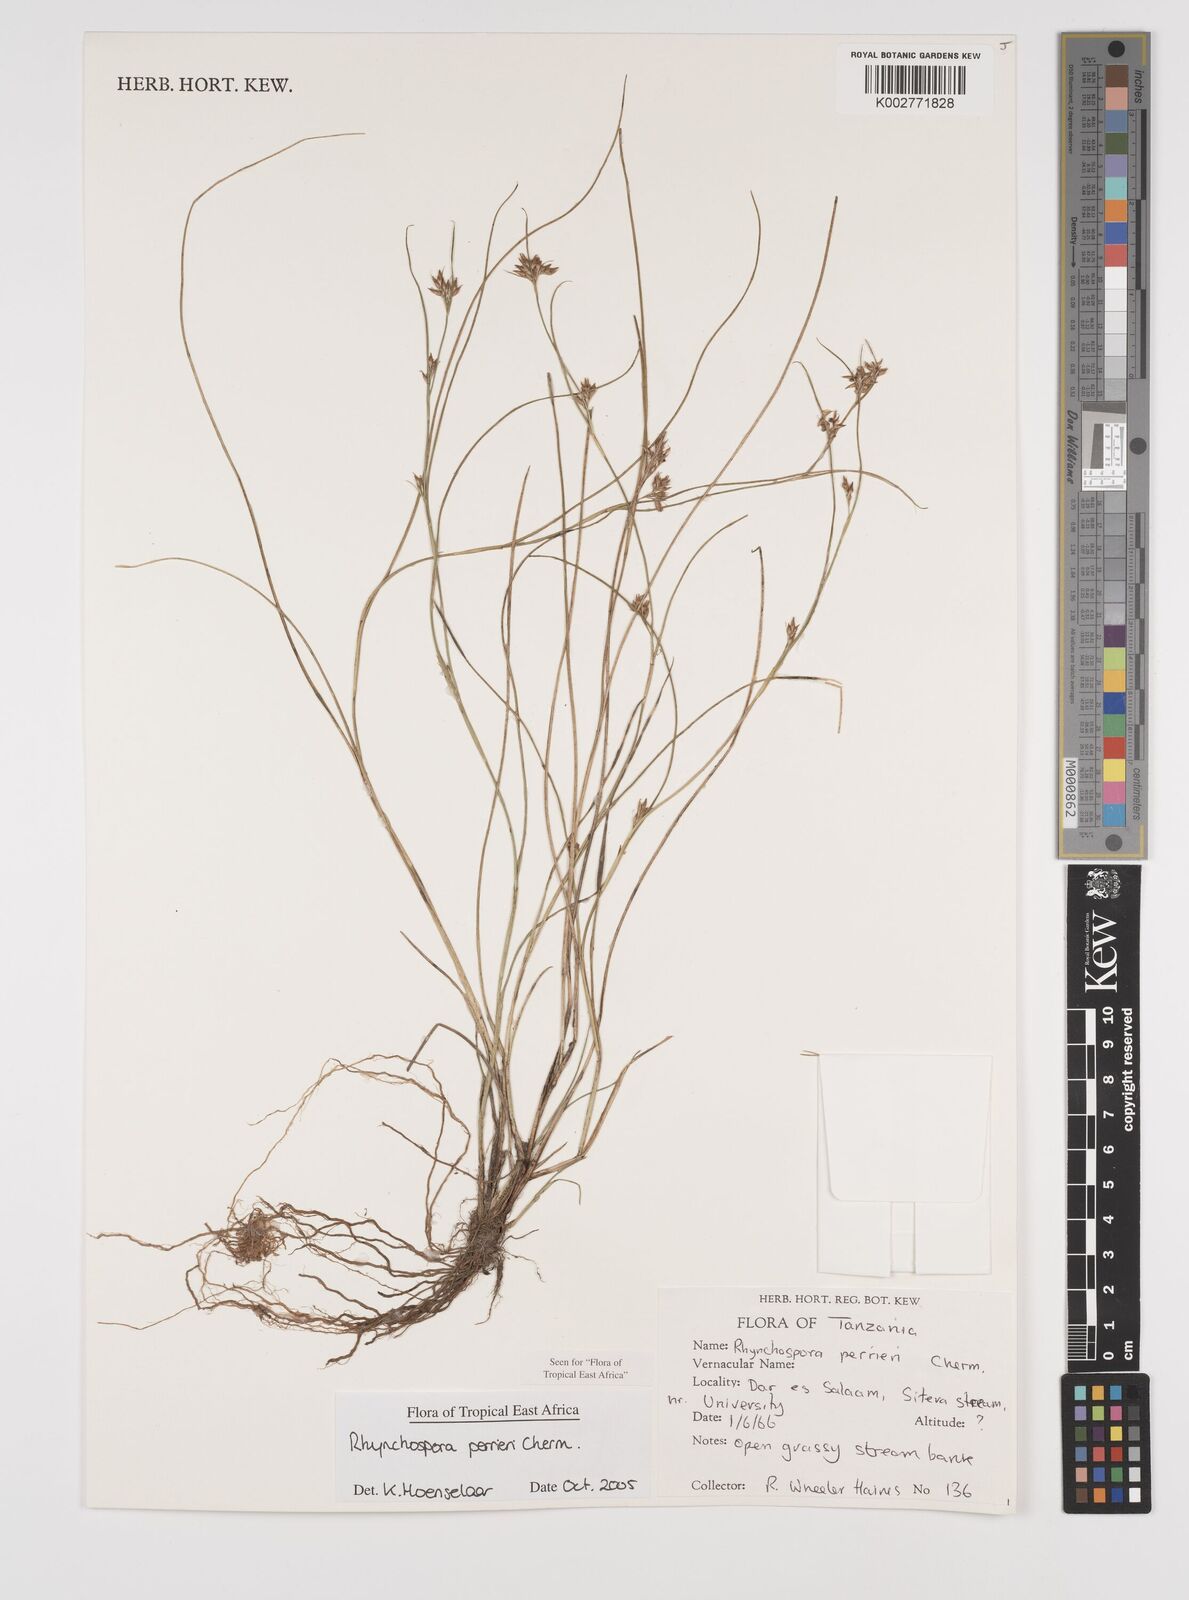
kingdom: Plantae
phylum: Tracheophyta
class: Liliopsida
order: Poales
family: Cyperaceae
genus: Rhynchospora
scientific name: Rhynchospora perrieri
